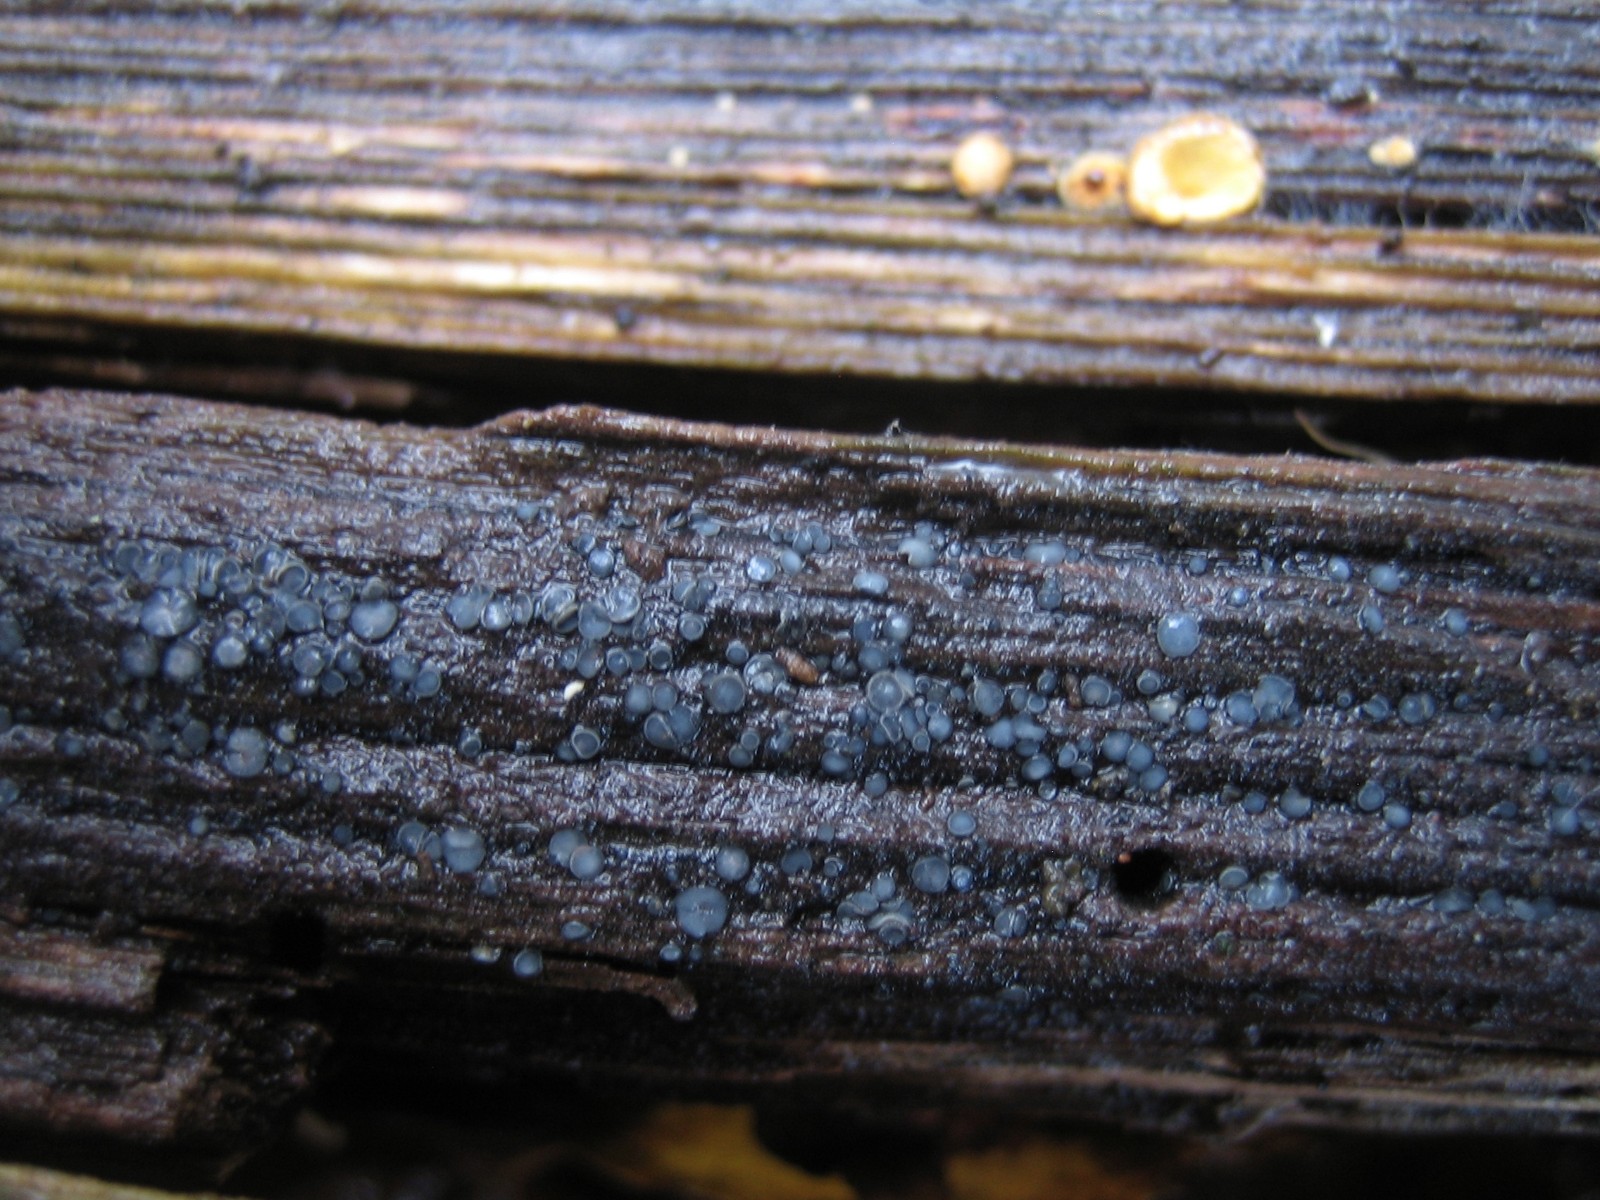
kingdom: Fungi
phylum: Ascomycota
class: Leotiomycetes
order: Helotiales
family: Mollisiaceae
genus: Mollisia
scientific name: Mollisia
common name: gråskive
